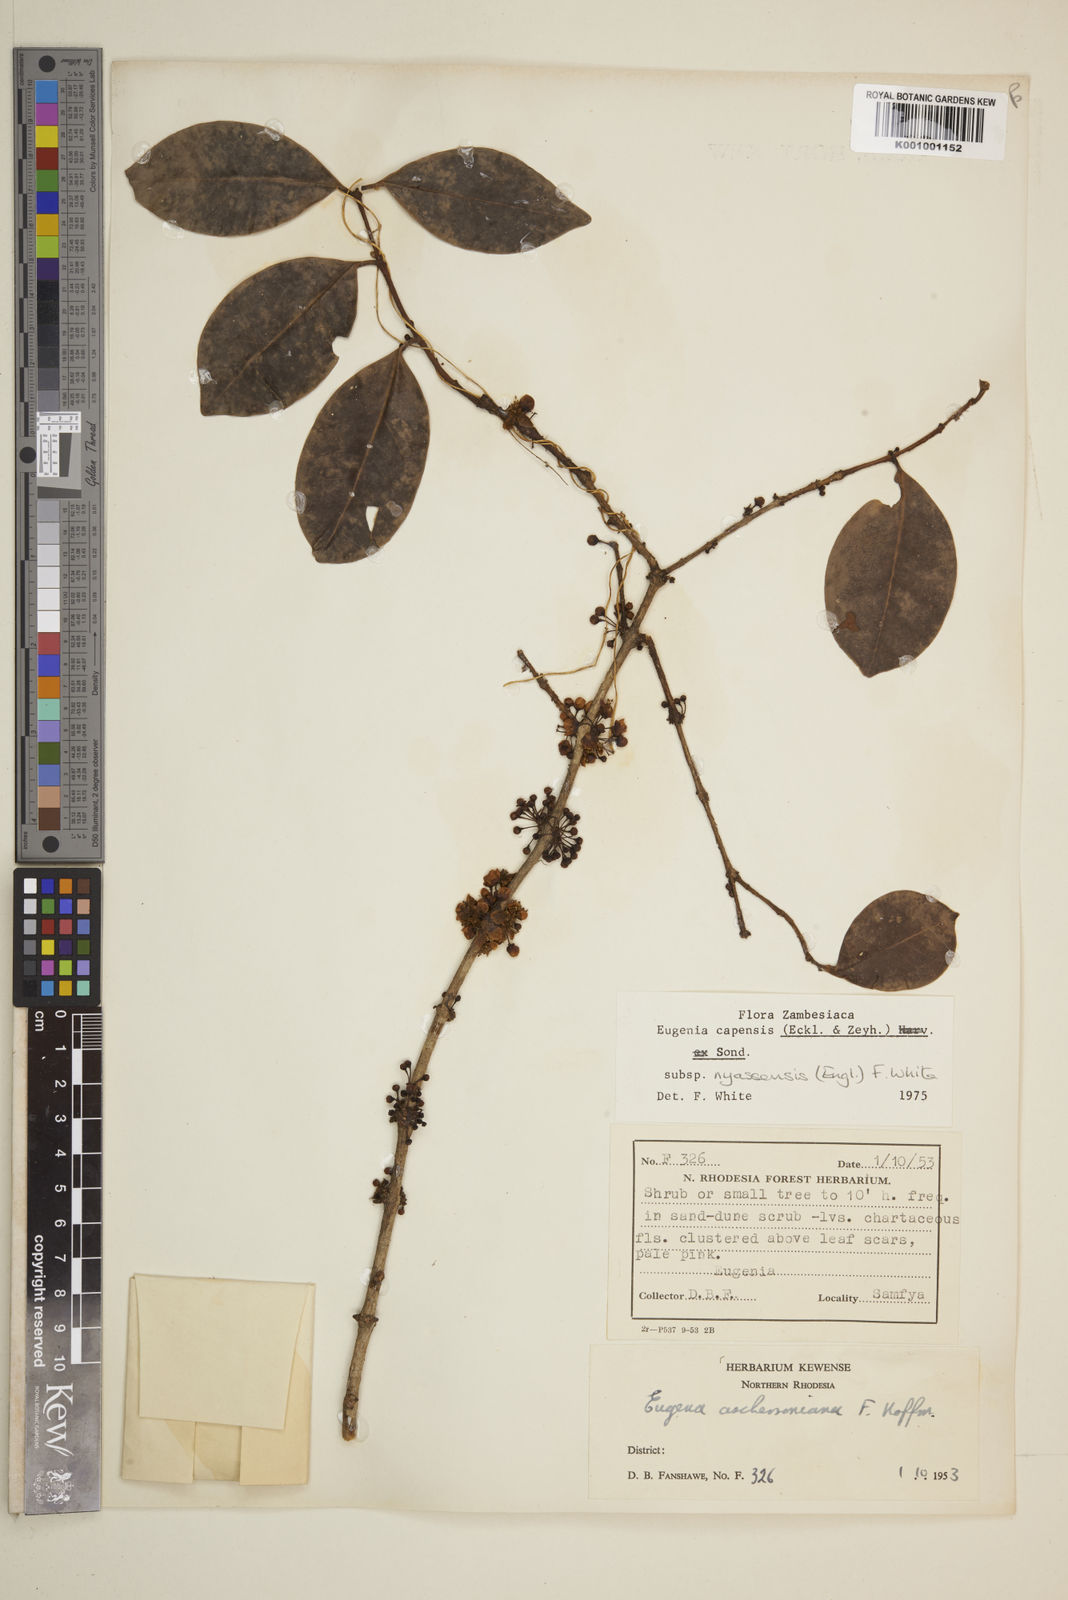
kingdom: Plantae
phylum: Tracheophyta
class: Magnoliopsida
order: Myrtales
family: Myrtaceae
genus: Eugenia
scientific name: Eugenia capensis
